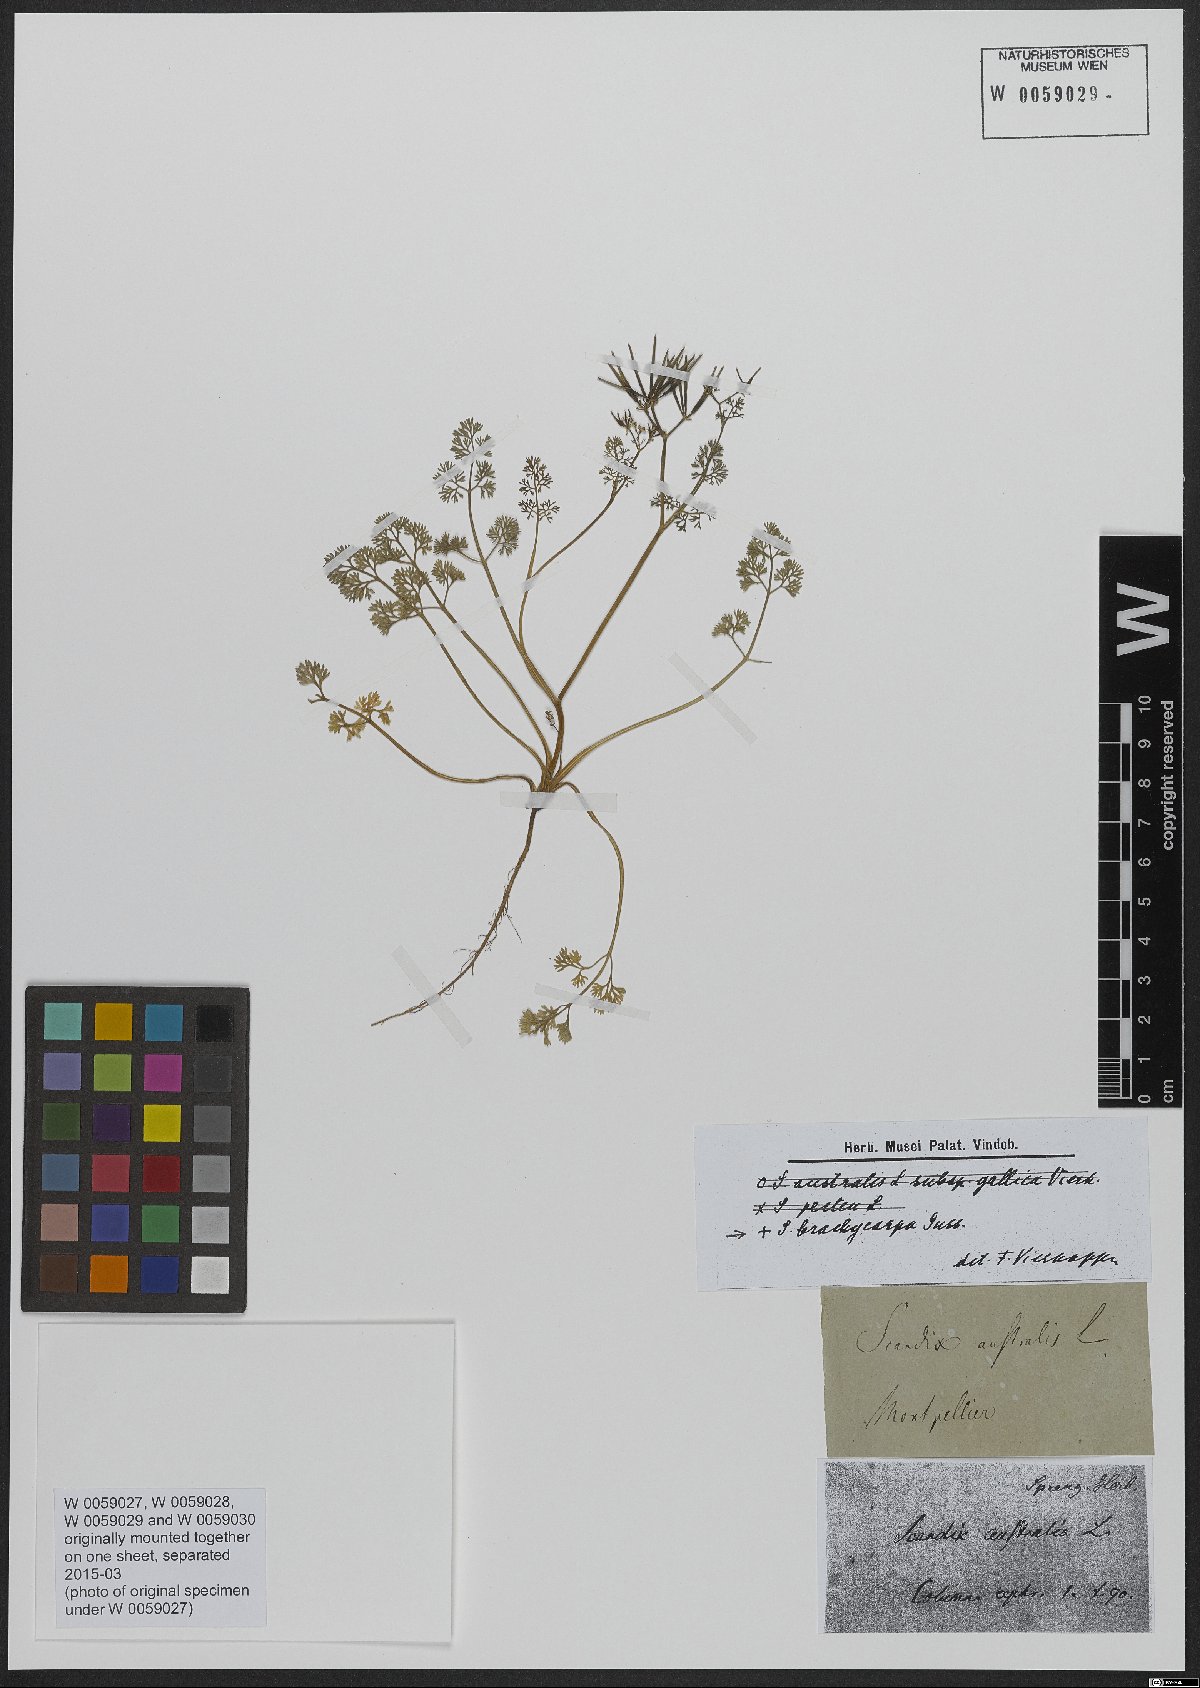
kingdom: Plantae
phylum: Tracheophyta
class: Magnoliopsida
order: Apiales
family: Apiaceae
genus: Scandix
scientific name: Scandix australis
